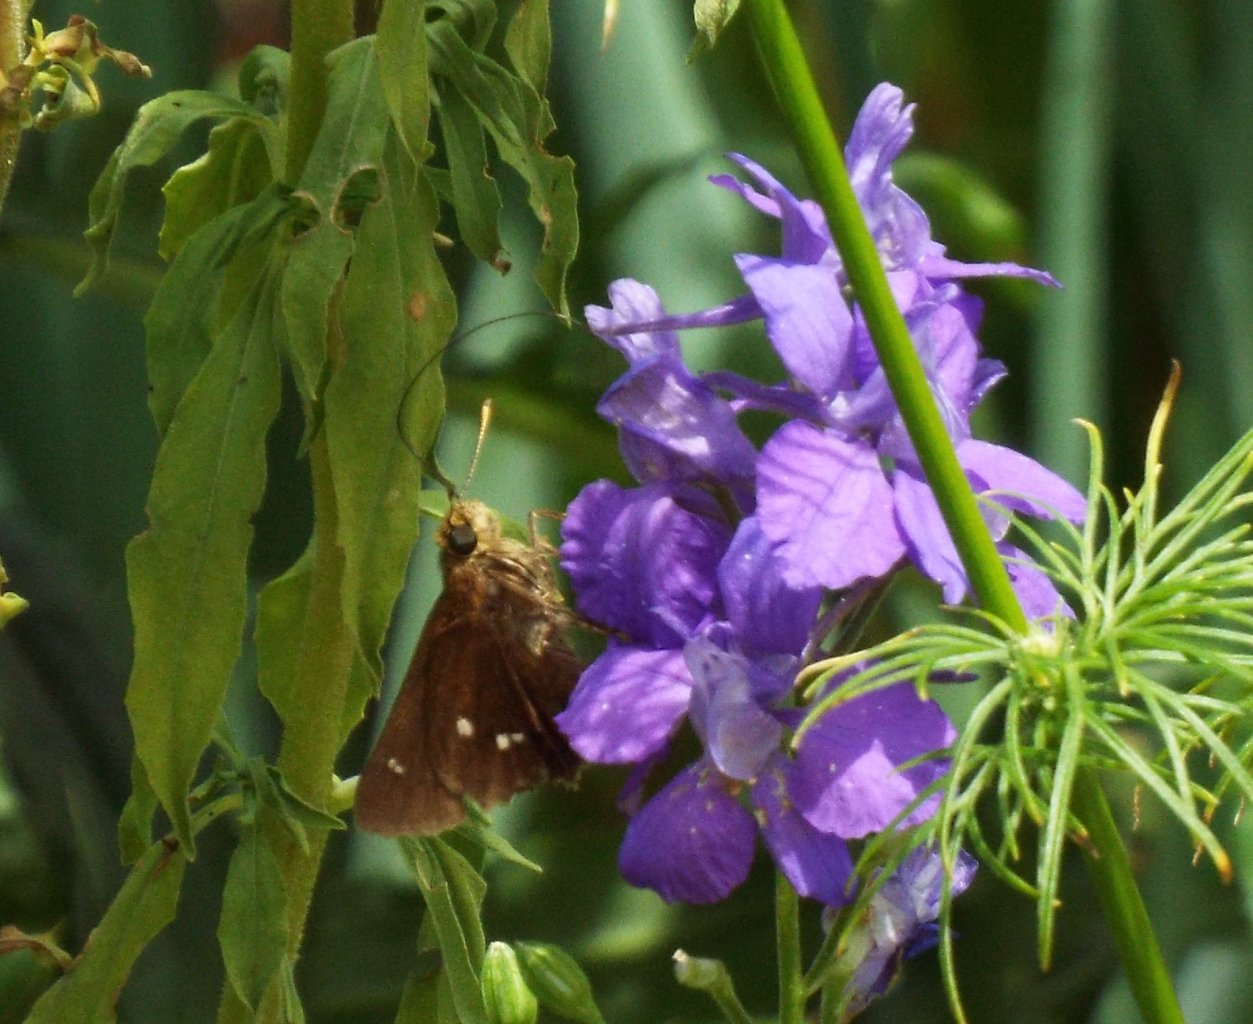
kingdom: Animalia
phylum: Arthropoda
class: Insecta
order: Lepidoptera
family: Hesperiidae
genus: Oligoria
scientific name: Oligoria maculata
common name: Twin-spot Skipper
